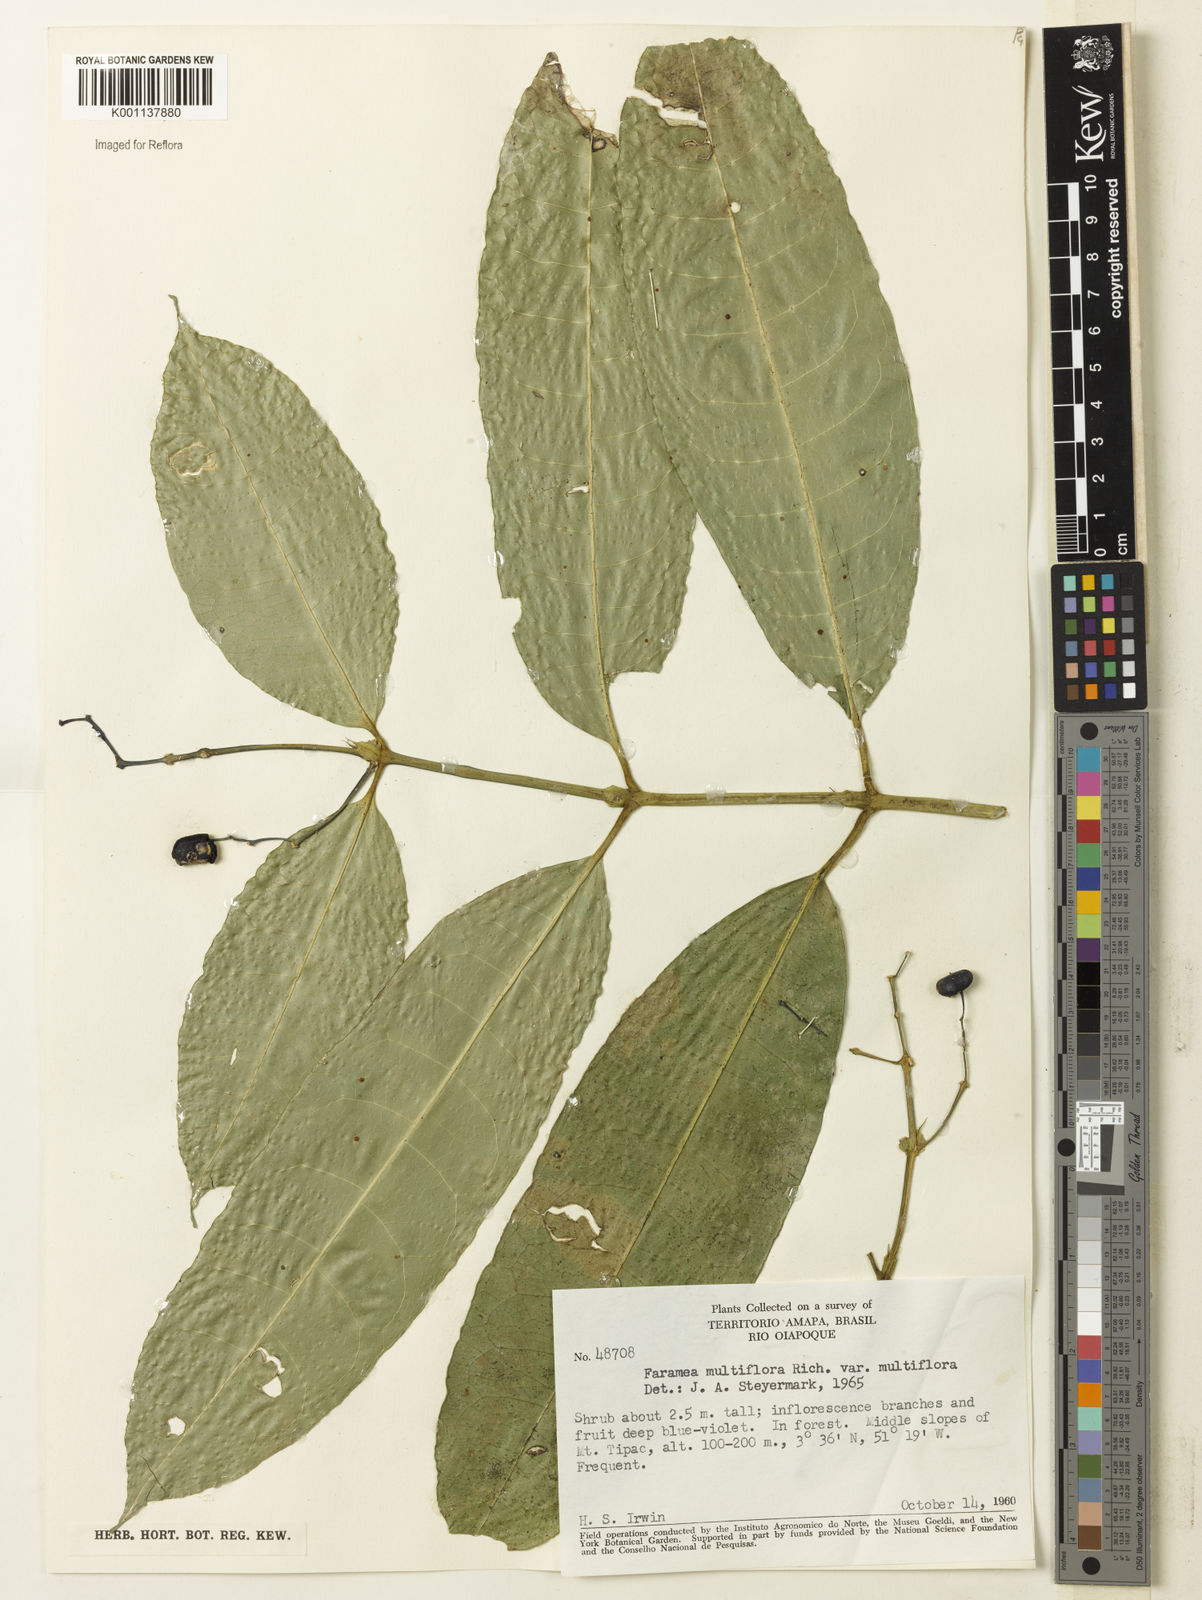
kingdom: Plantae
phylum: Tracheophyta
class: Magnoliopsida
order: Gentianales
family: Rubiaceae
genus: Faramea
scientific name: Faramea multiflora
